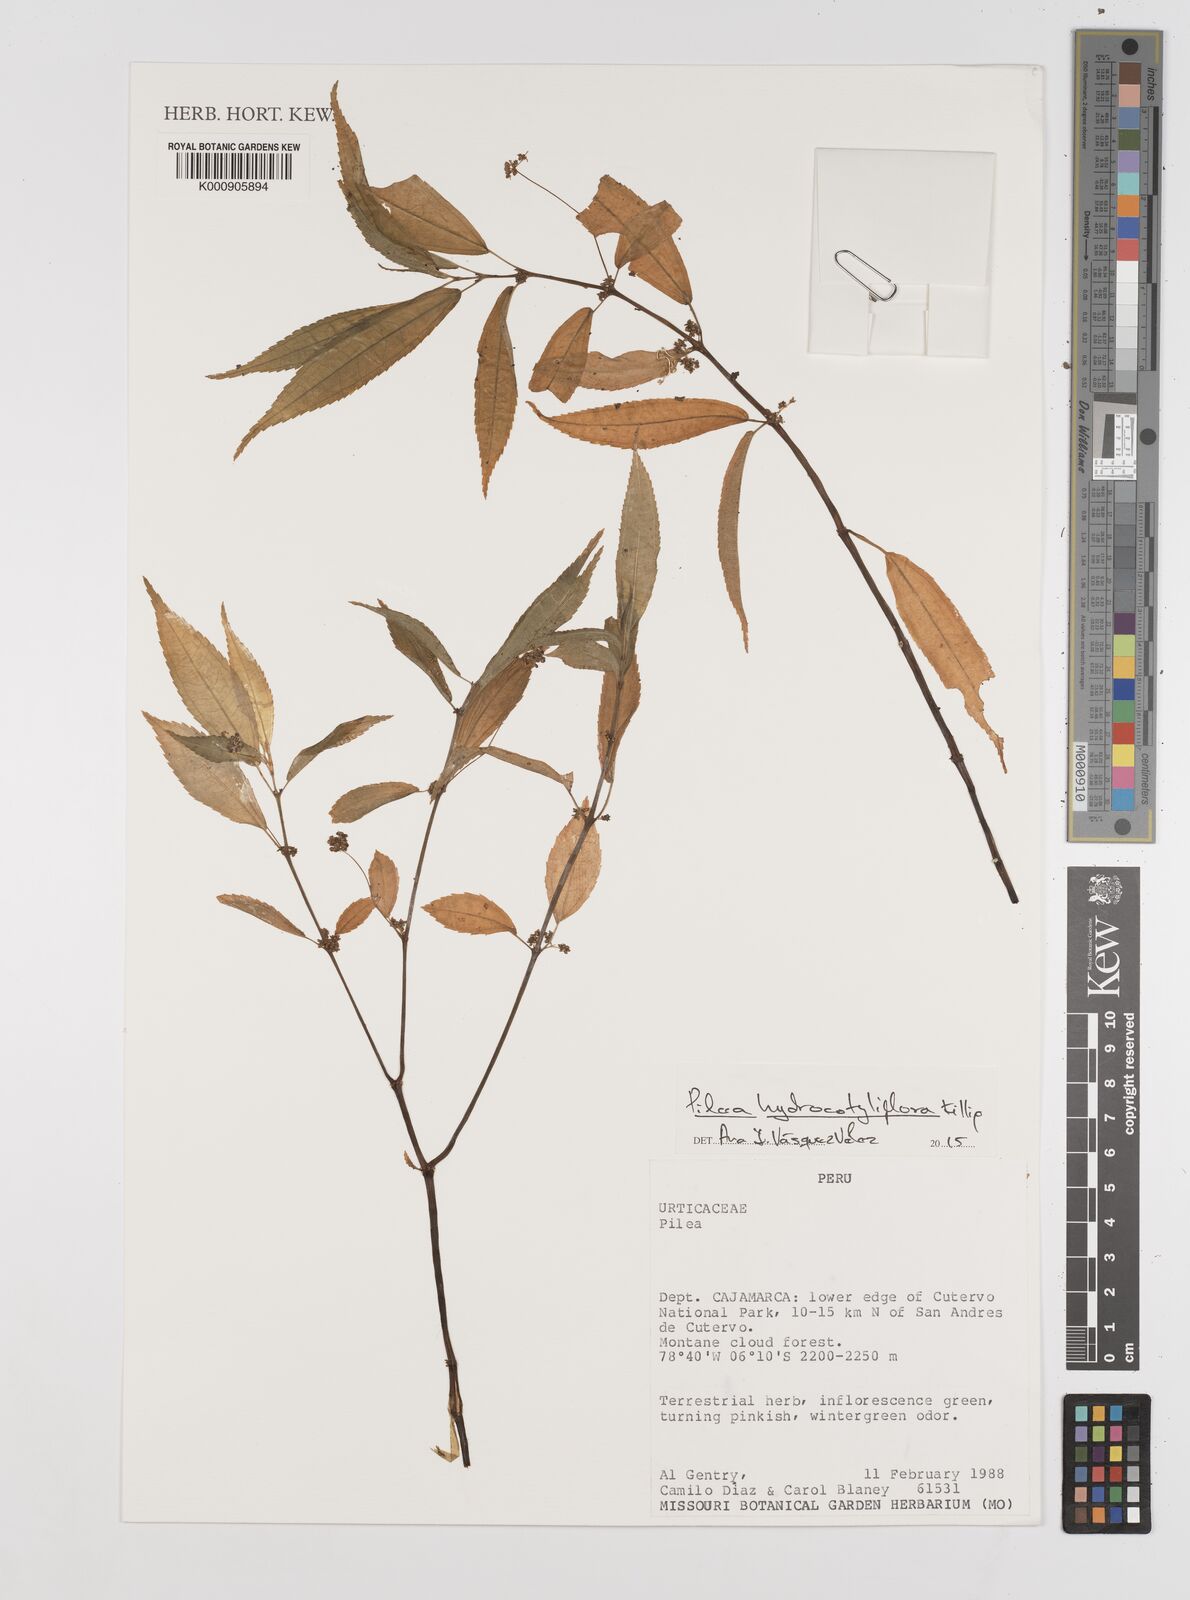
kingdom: Plantae
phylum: Tracheophyta
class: Magnoliopsida
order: Rosales
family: Urticaceae
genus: Pilea
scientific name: Pilea hydrocotyliflora
